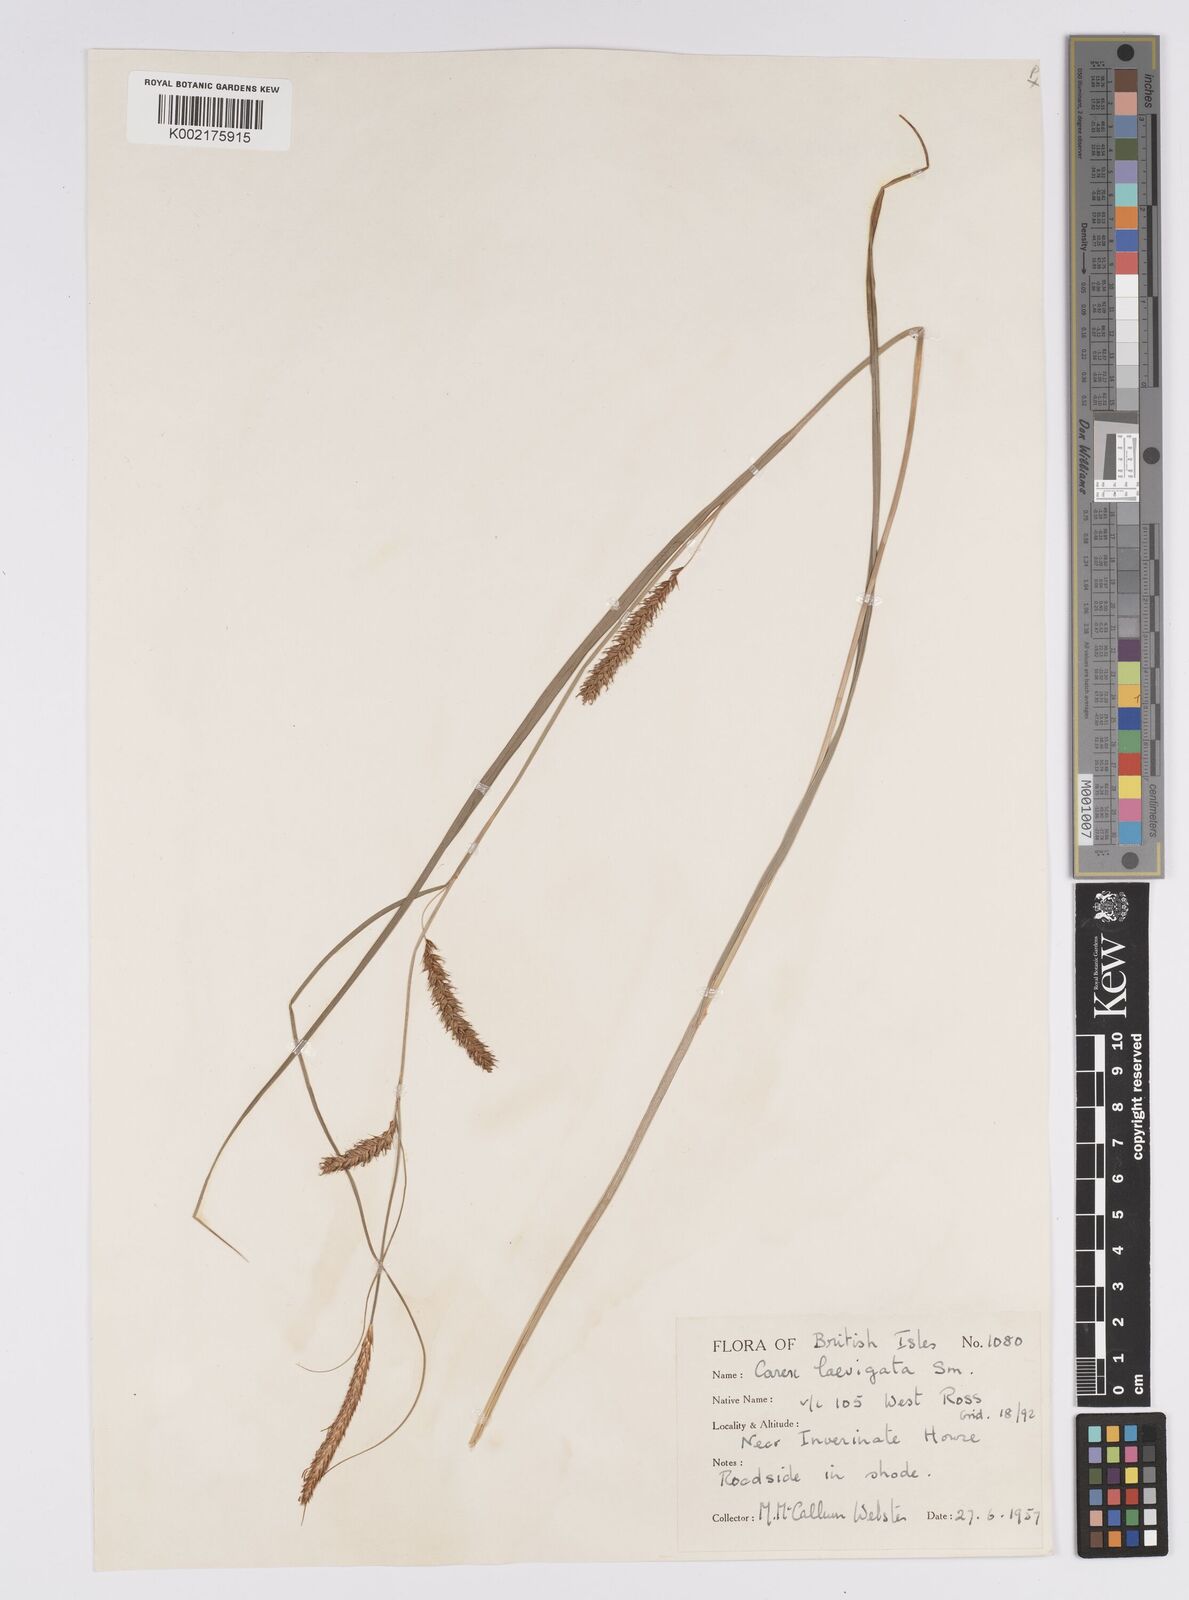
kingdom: Plantae
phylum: Tracheophyta
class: Liliopsida
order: Poales
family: Cyperaceae
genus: Carex
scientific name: Carex laevigata
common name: Smooth-stalked sedge
